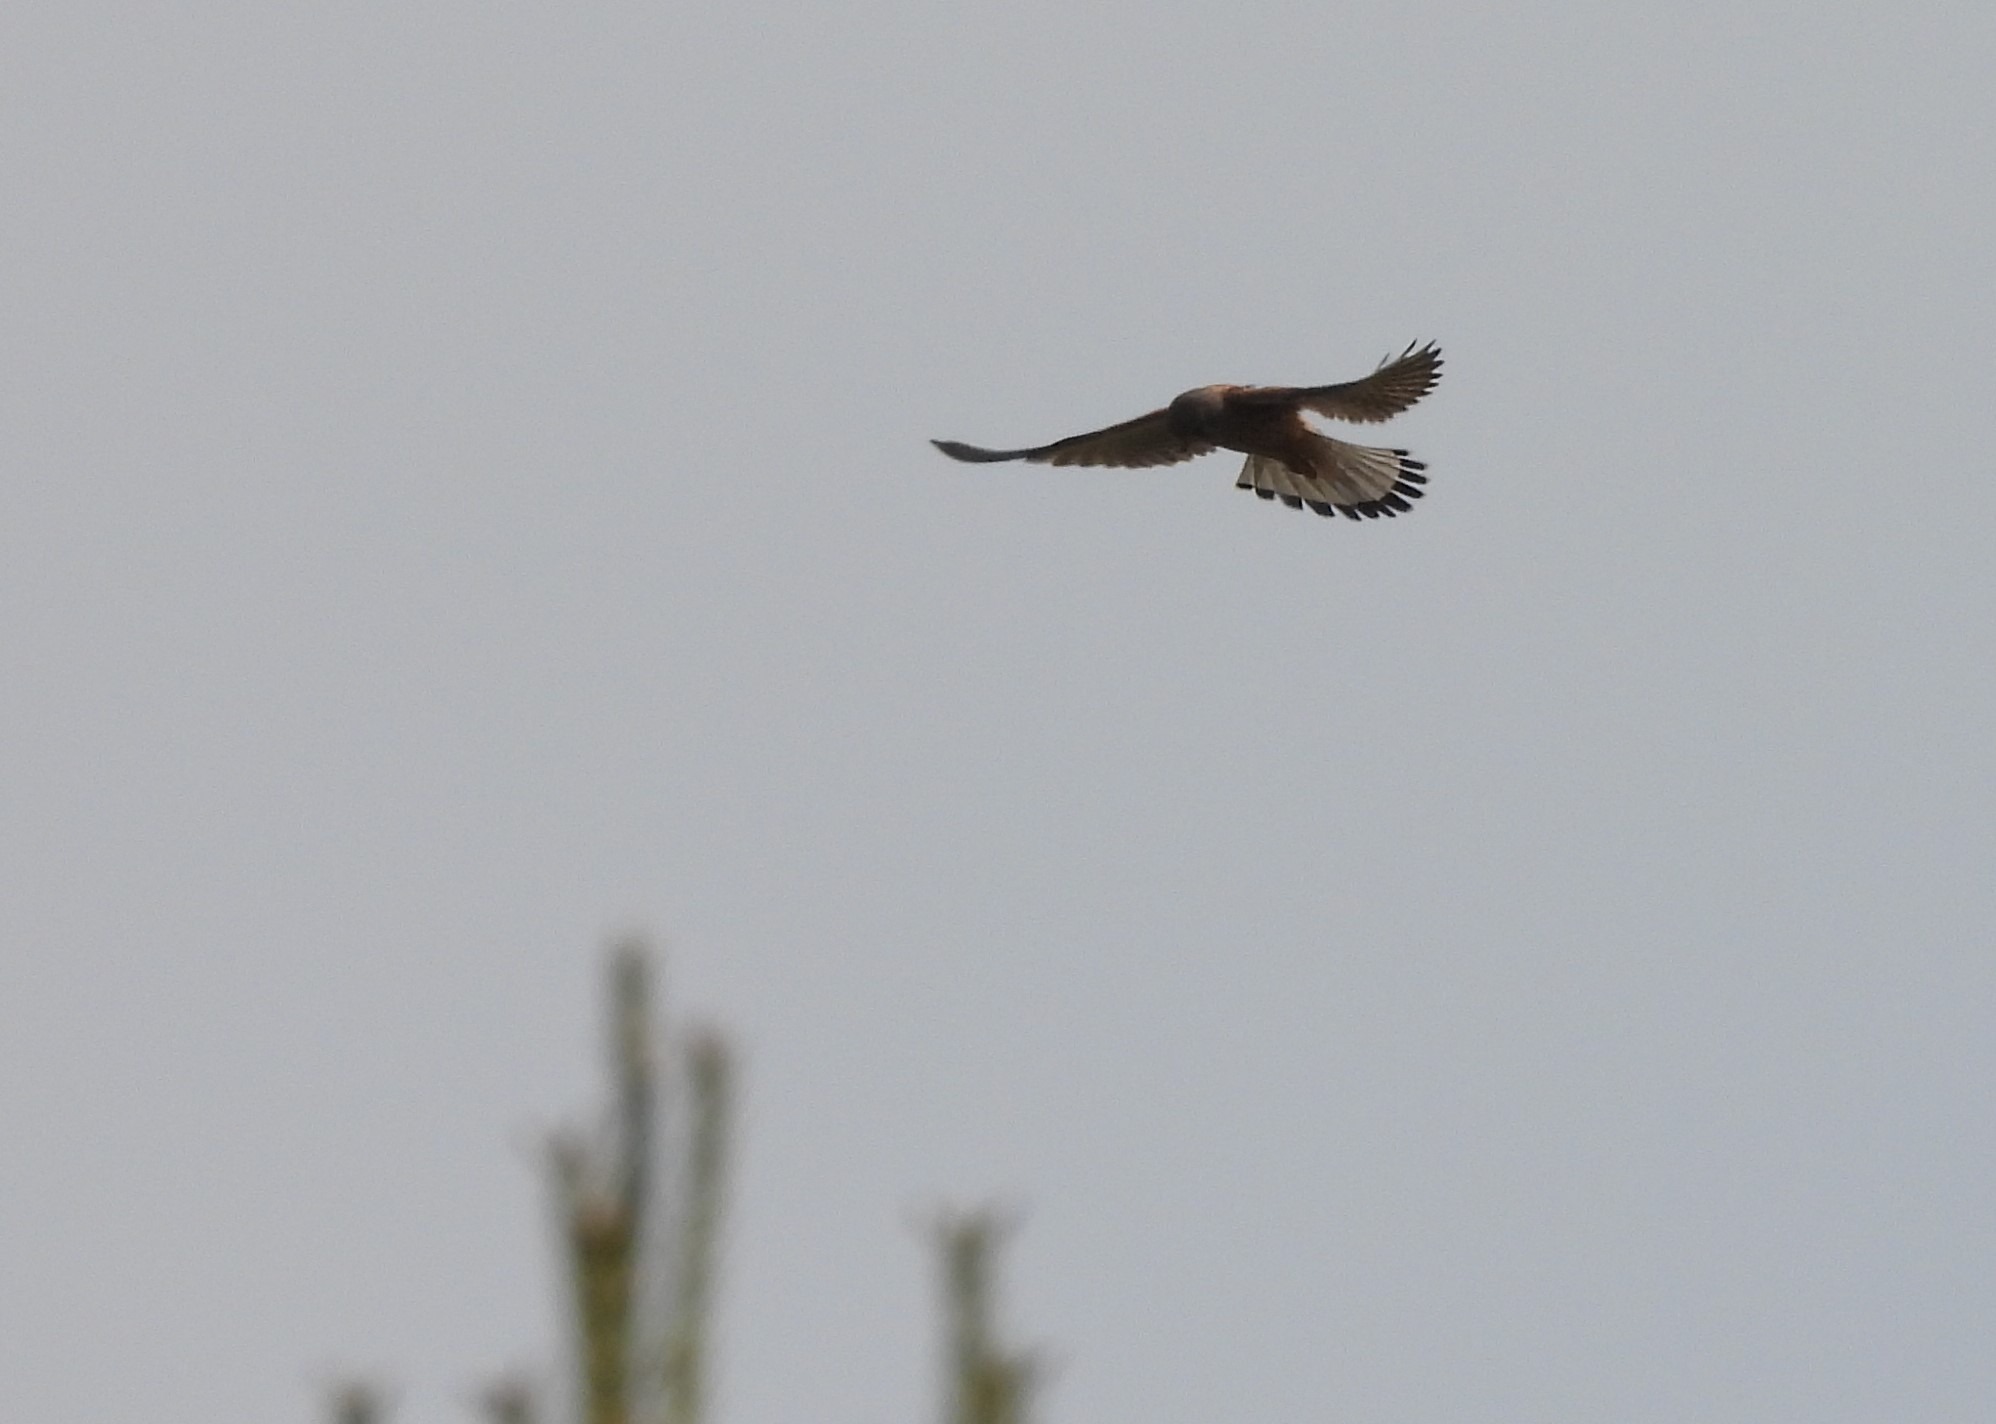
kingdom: Animalia
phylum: Chordata
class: Aves
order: Falconiformes
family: Falconidae
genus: Falco
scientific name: Falco tinnunculus
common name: Tårnfalk
